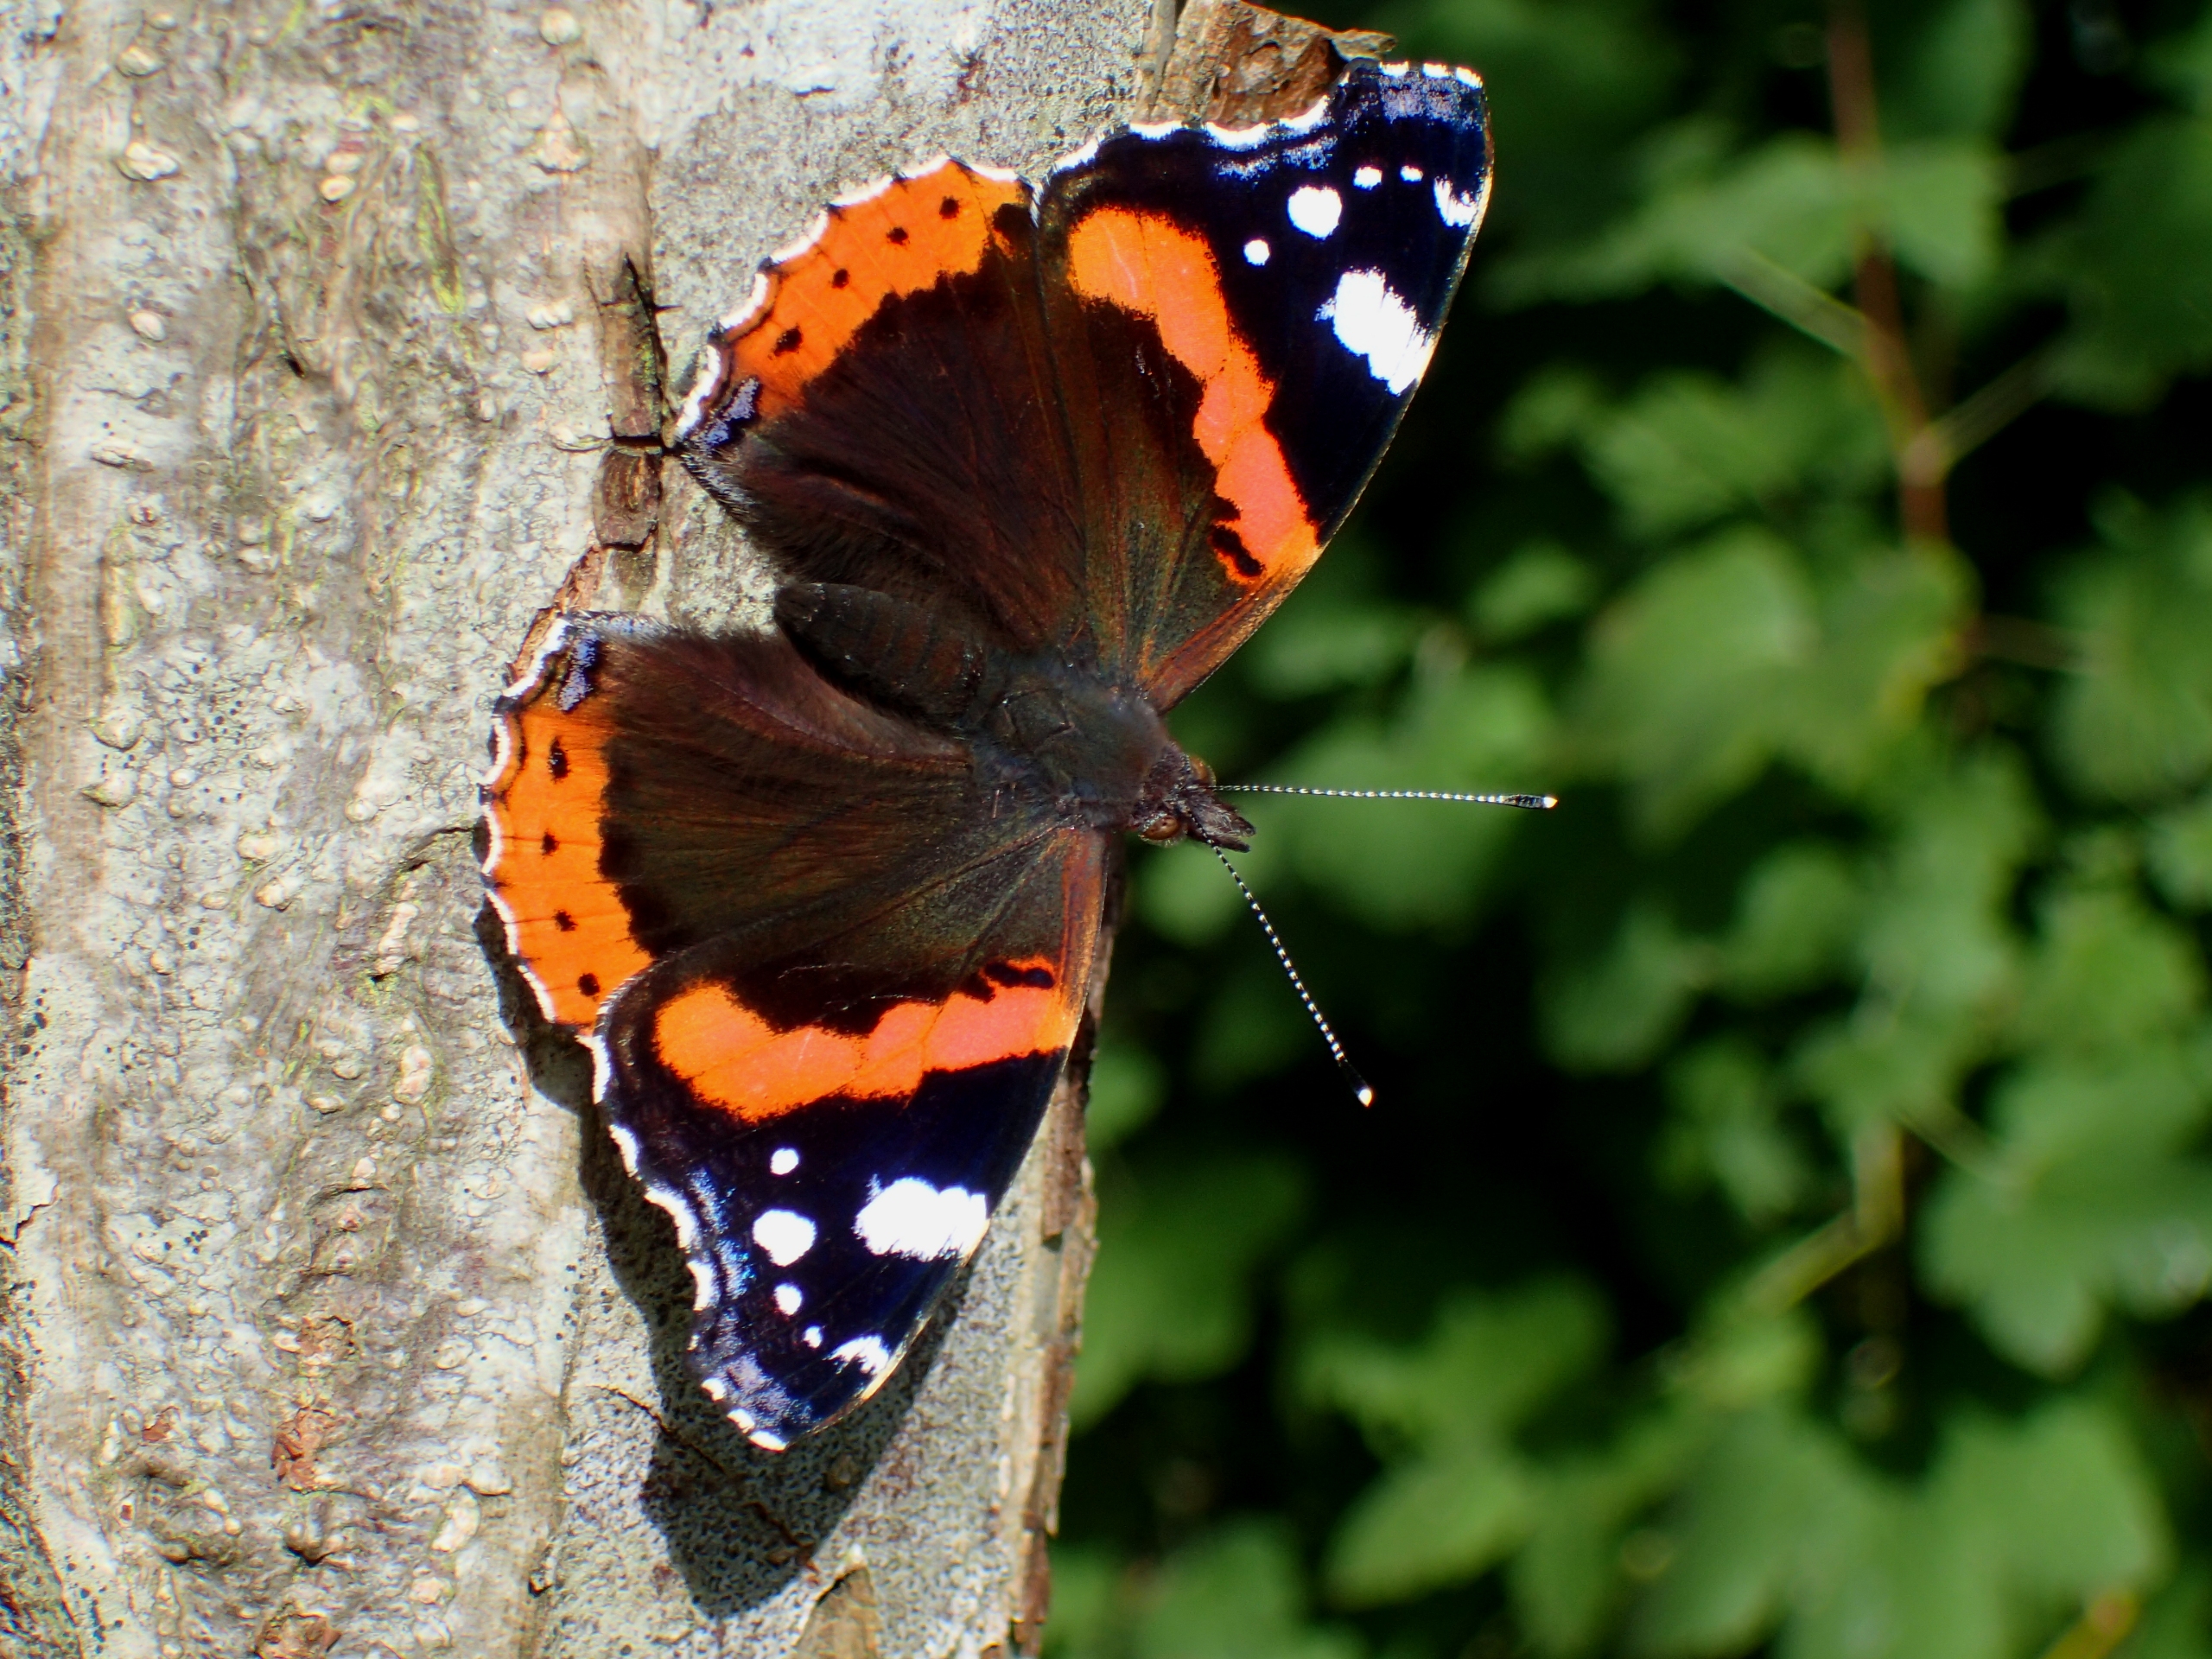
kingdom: Animalia
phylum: Arthropoda
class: Insecta
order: Lepidoptera
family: Nymphalidae
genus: Vanessa
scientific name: Vanessa atalanta
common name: Admiral
